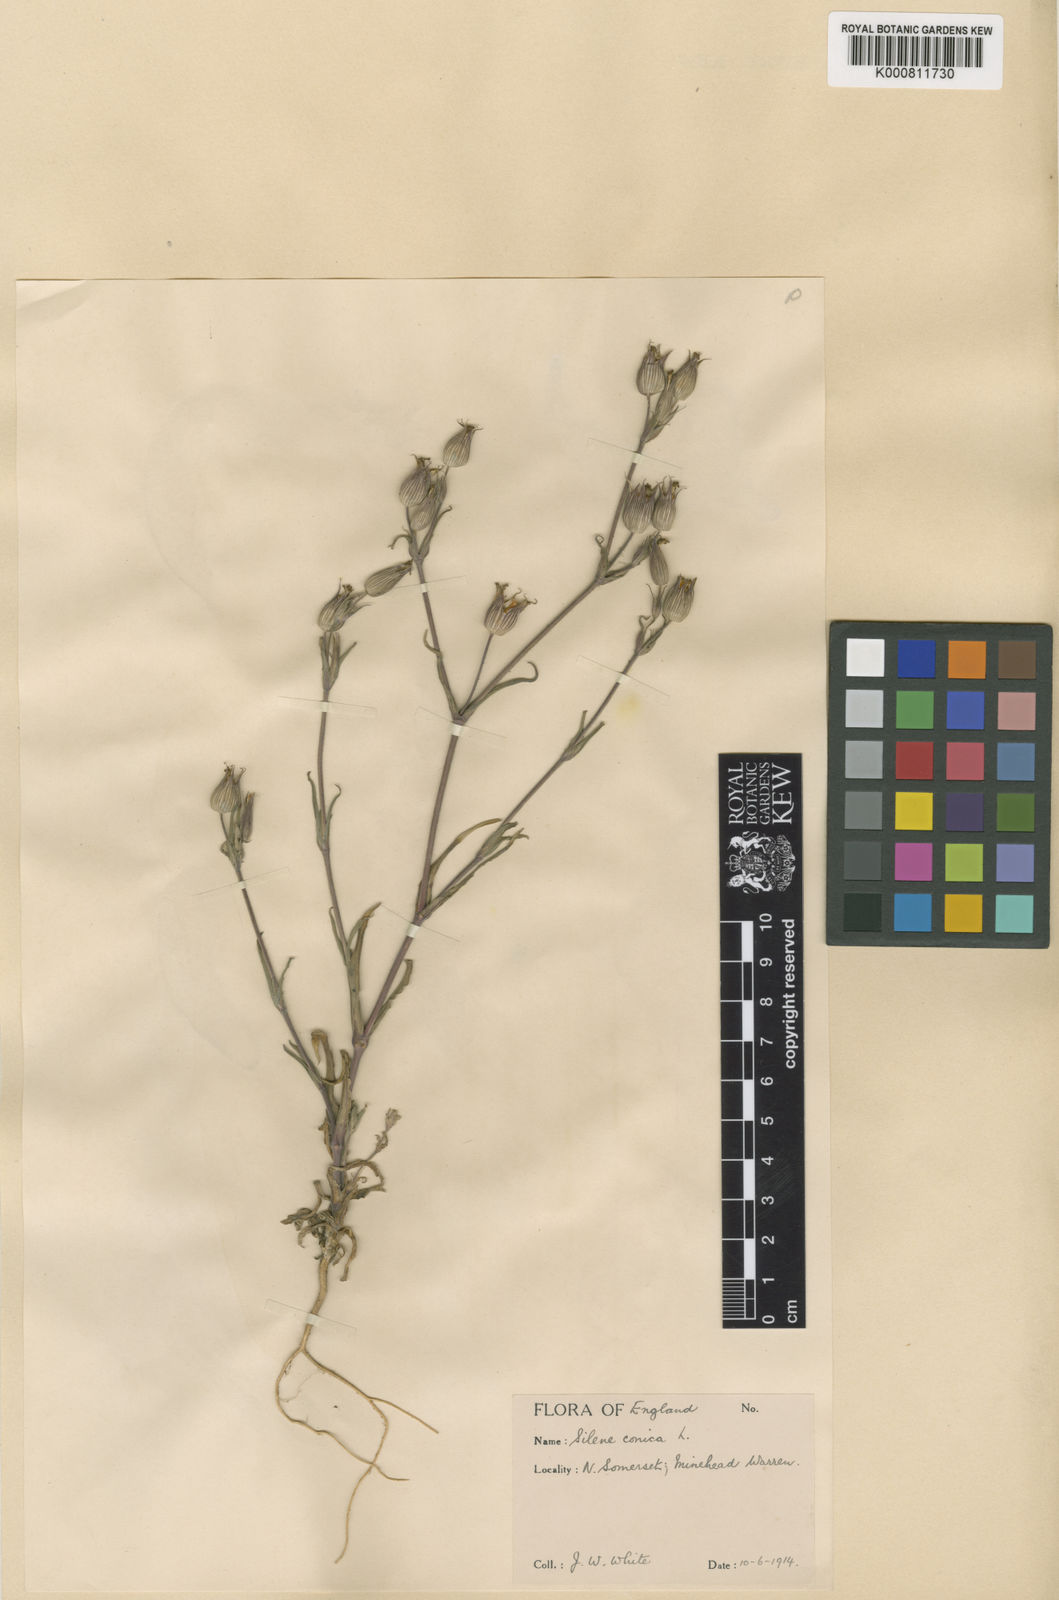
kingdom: Plantae
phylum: Tracheophyta
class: Magnoliopsida
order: Caryophyllales
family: Caryophyllaceae
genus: Silene
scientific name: Silene conica
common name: Sand catchfly
